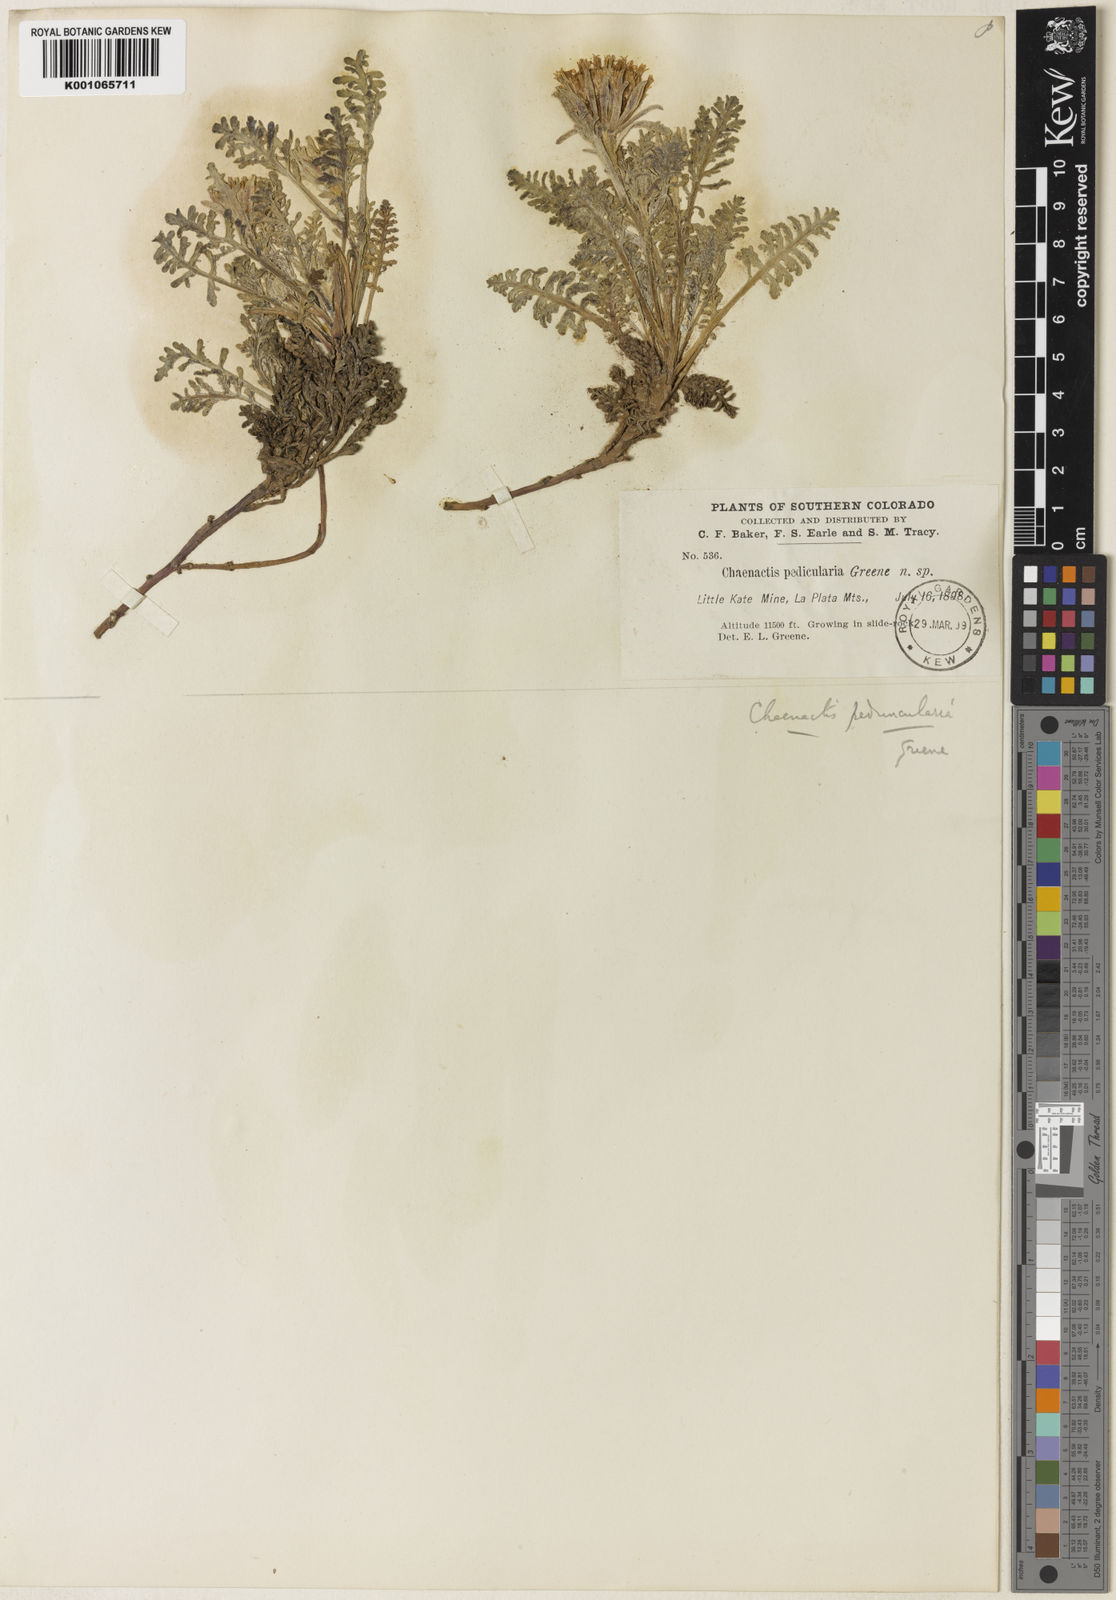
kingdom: Plantae
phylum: Tracheophyta
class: Magnoliopsida
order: Asterales
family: Asteraceae
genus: Chaenactis
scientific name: Chaenactis douglasii
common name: Hoary pincushion
